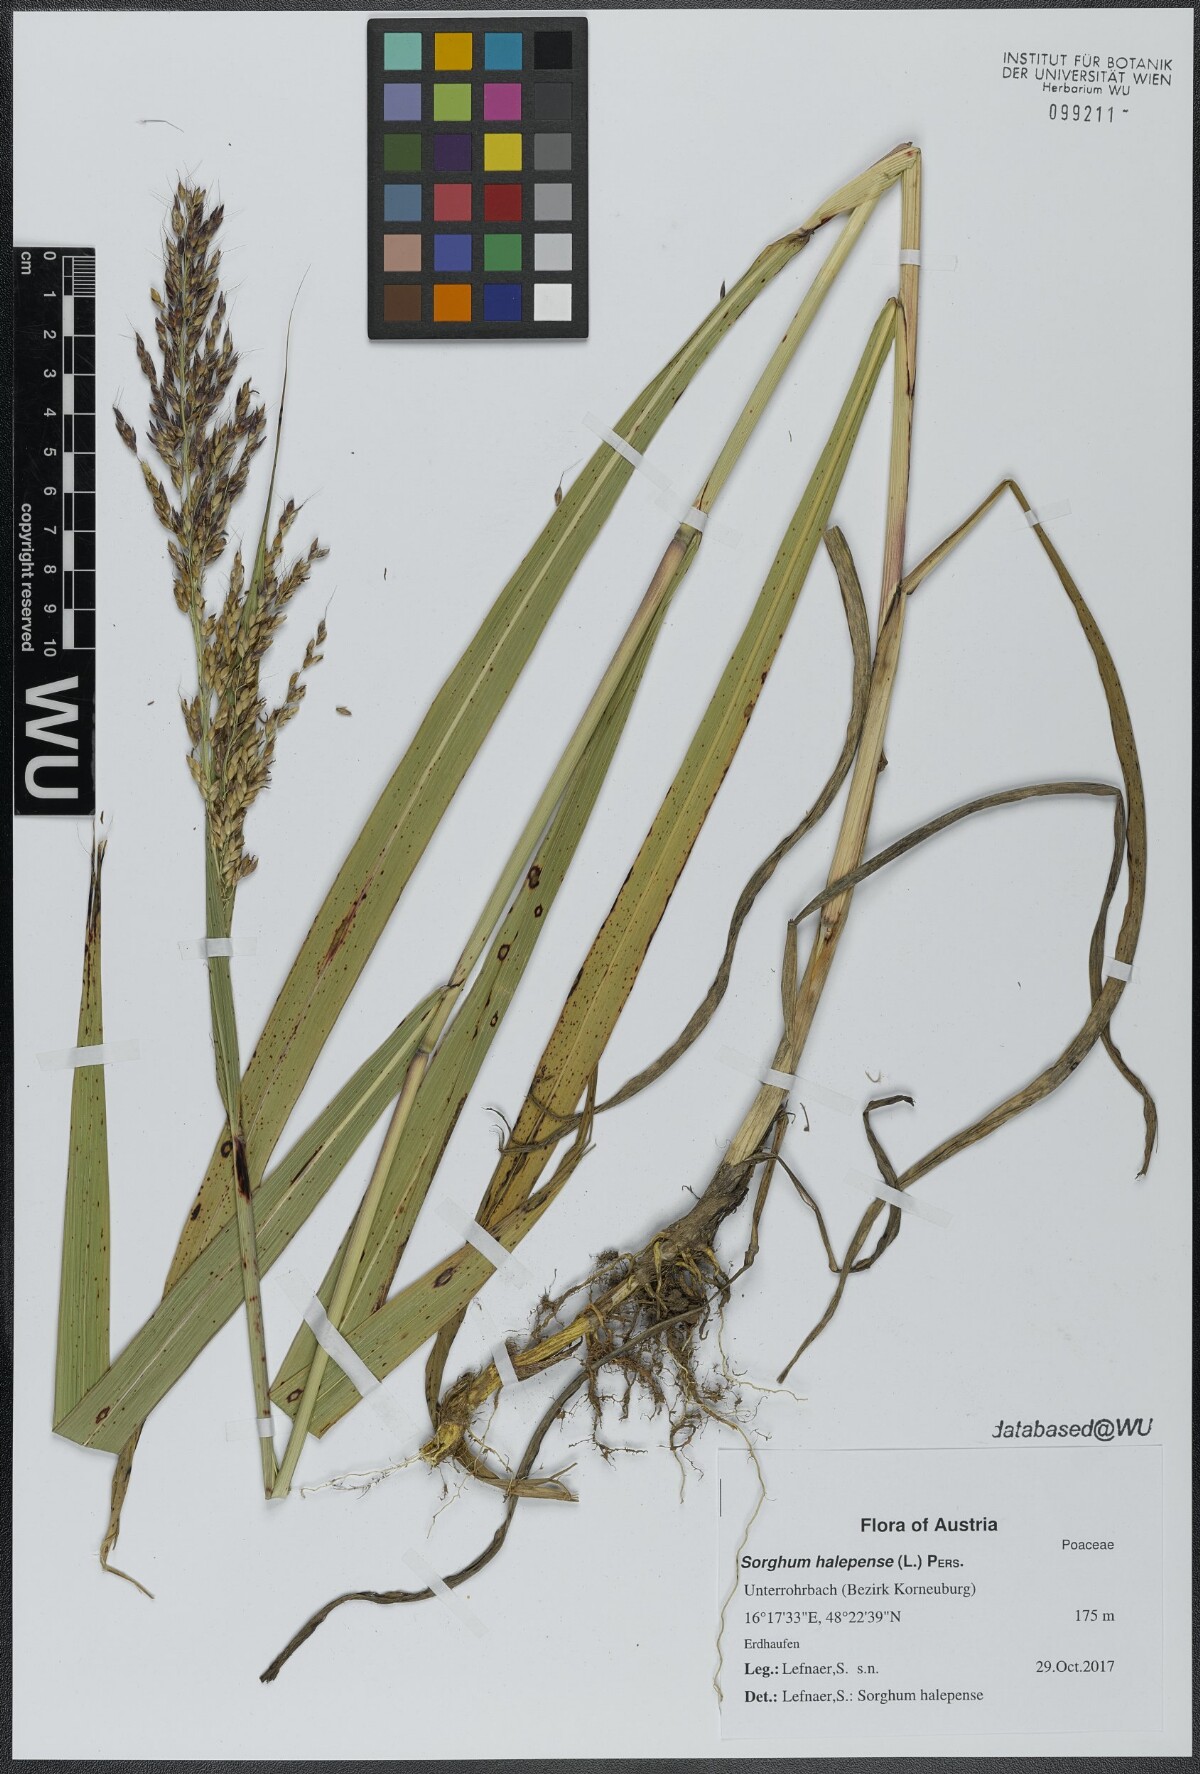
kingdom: Plantae
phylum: Tracheophyta
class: Liliopsida
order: Poales
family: Poaceae
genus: Sorghum
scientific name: Sorghum halepense
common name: Johnson-grass
